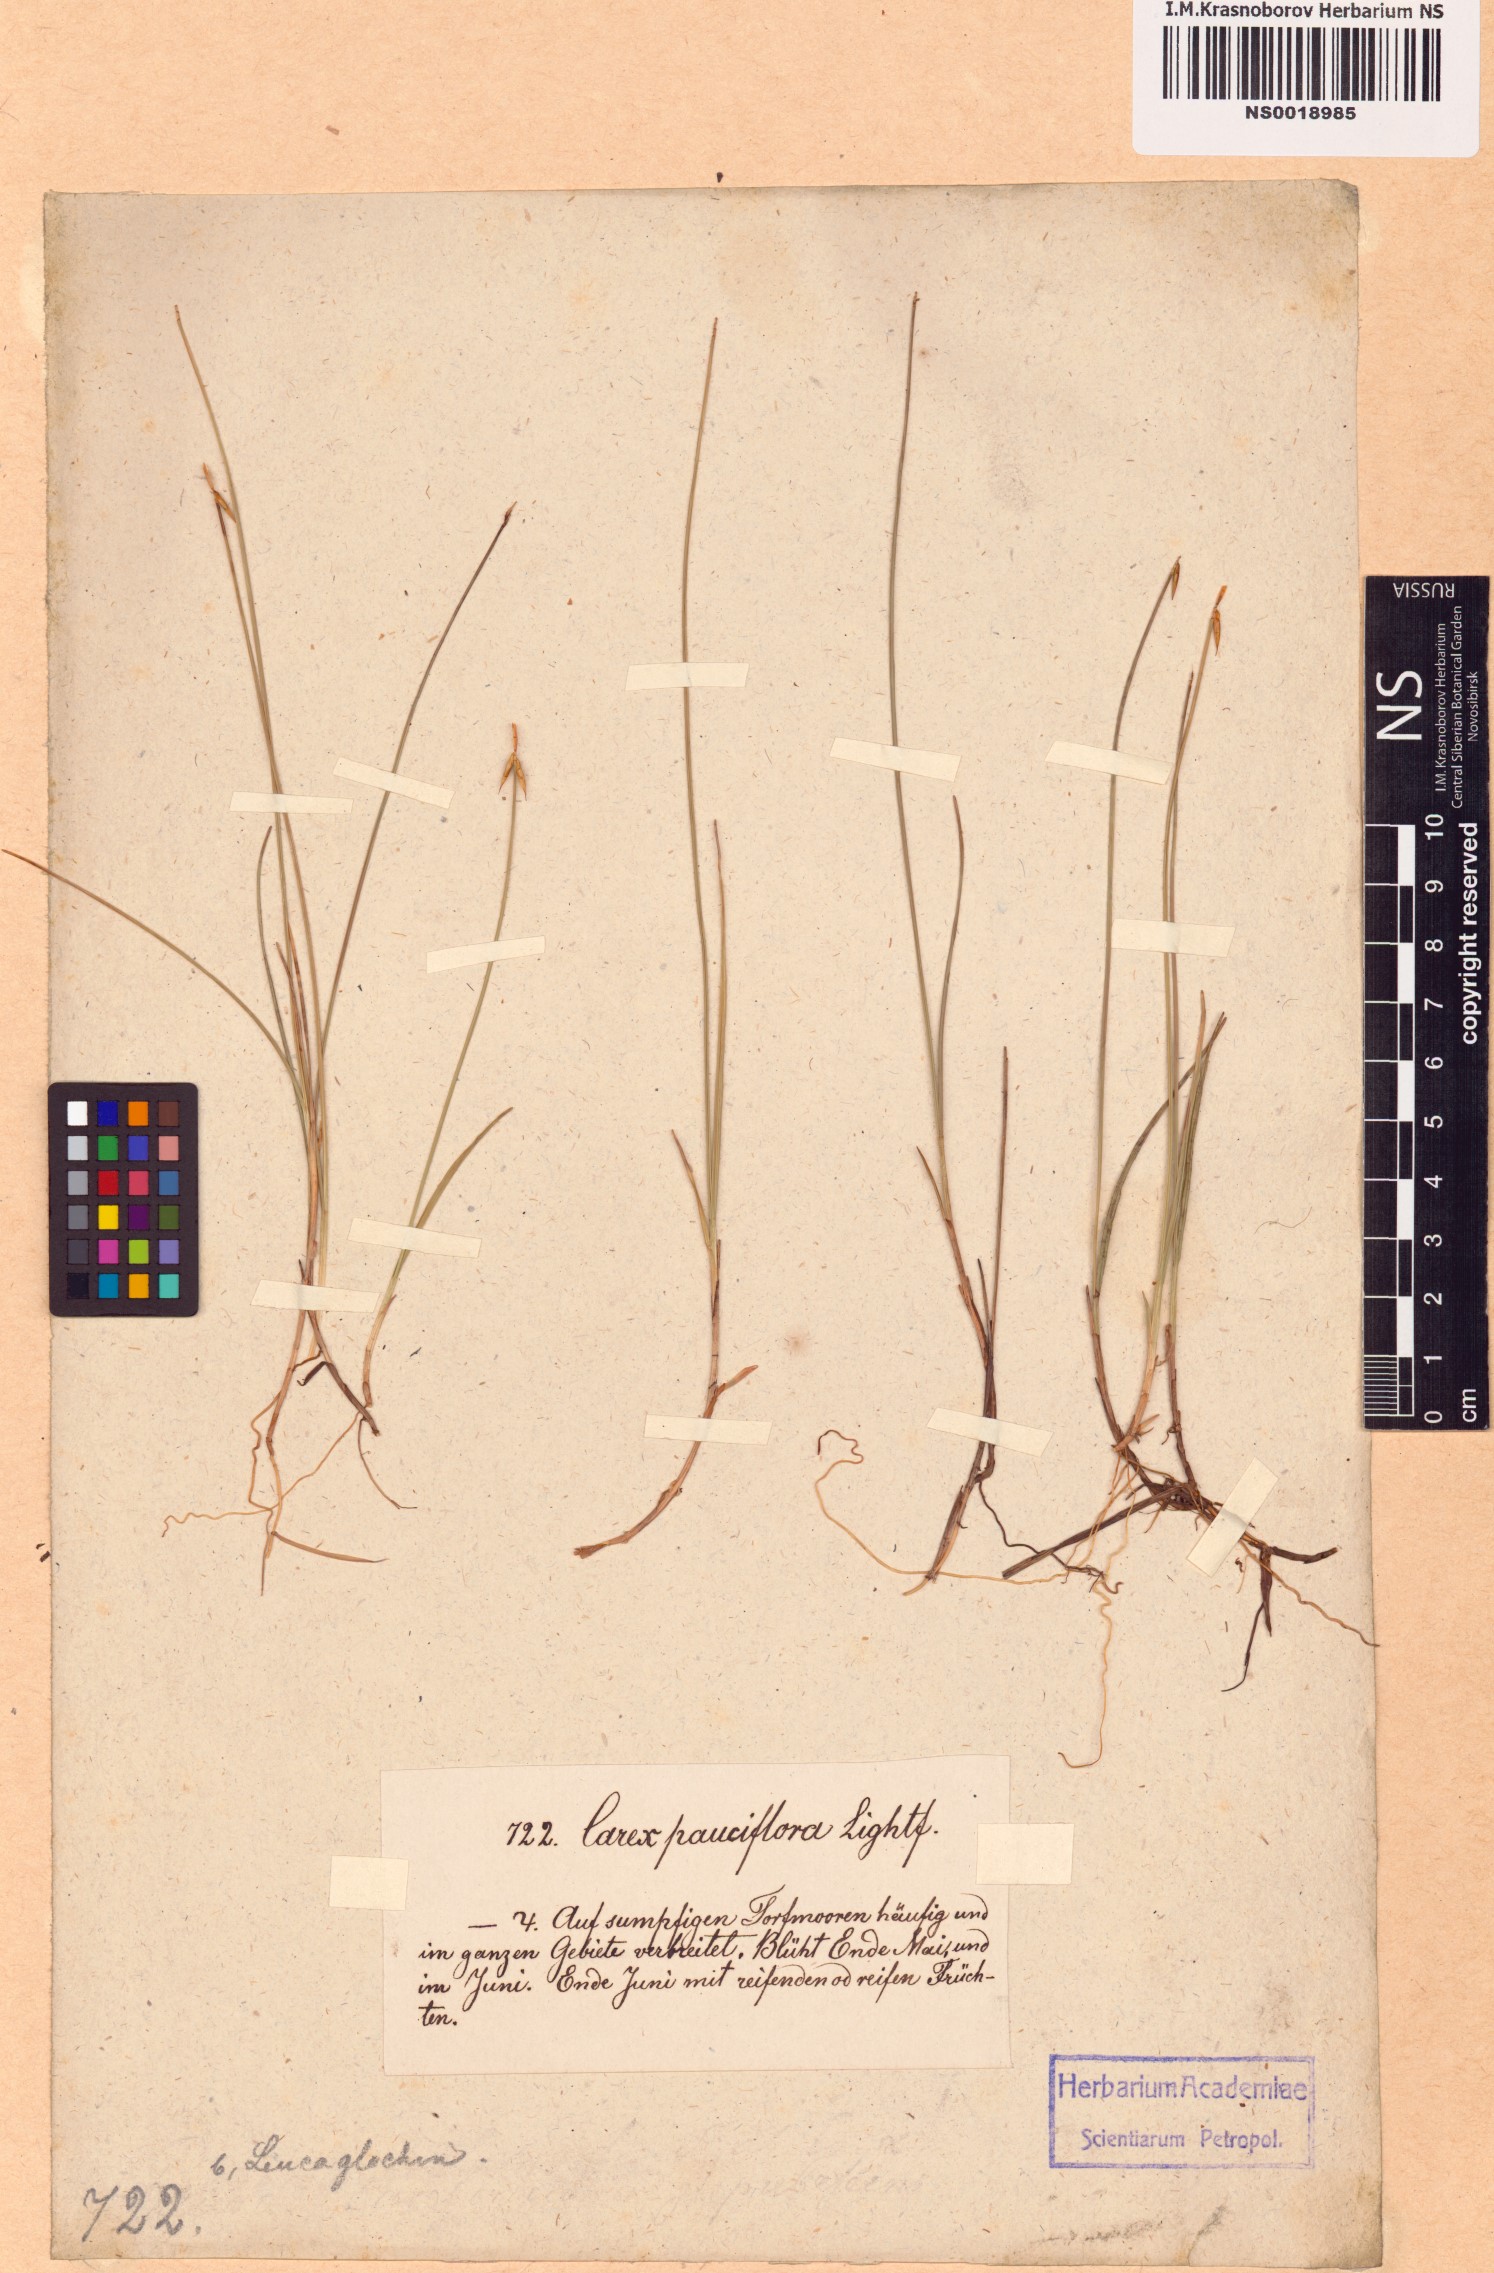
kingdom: Plantae
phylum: Tracheophyta
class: Liliopsida
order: Poales
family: Cyperaceae
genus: Carex
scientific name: Carex pauciflora
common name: Few-flowered sedge
